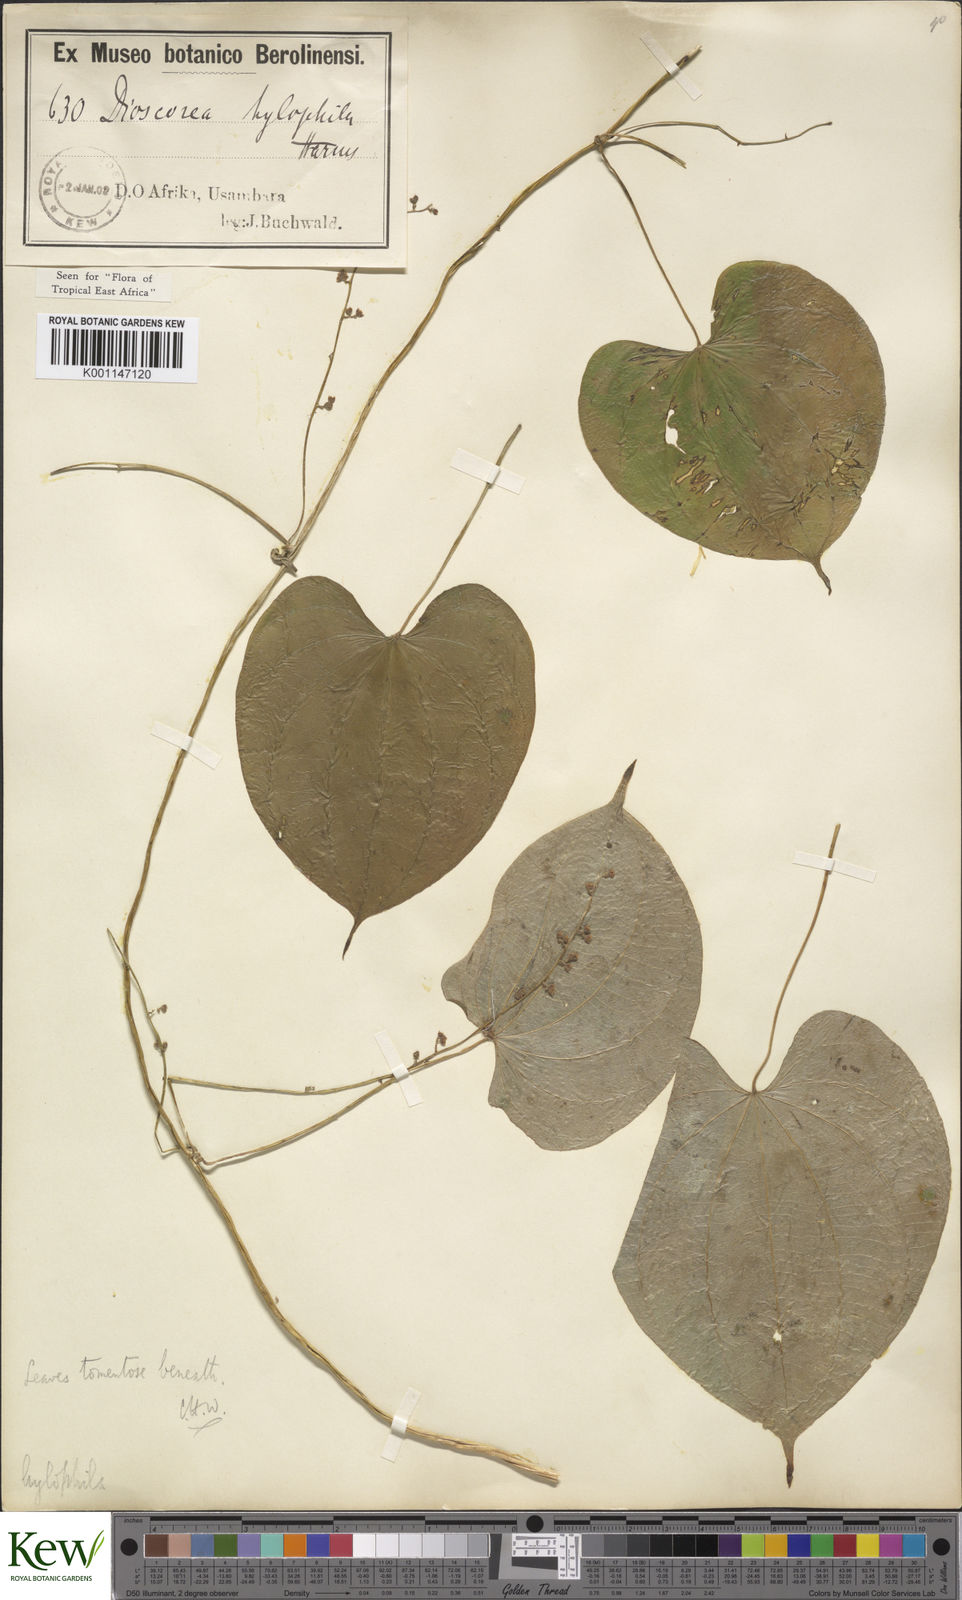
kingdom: Plantae
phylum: Tracheophyta
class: Liliopsida
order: Dioscoreales
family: Dioscoreaceae
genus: Dioscorea
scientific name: Dioscorea
